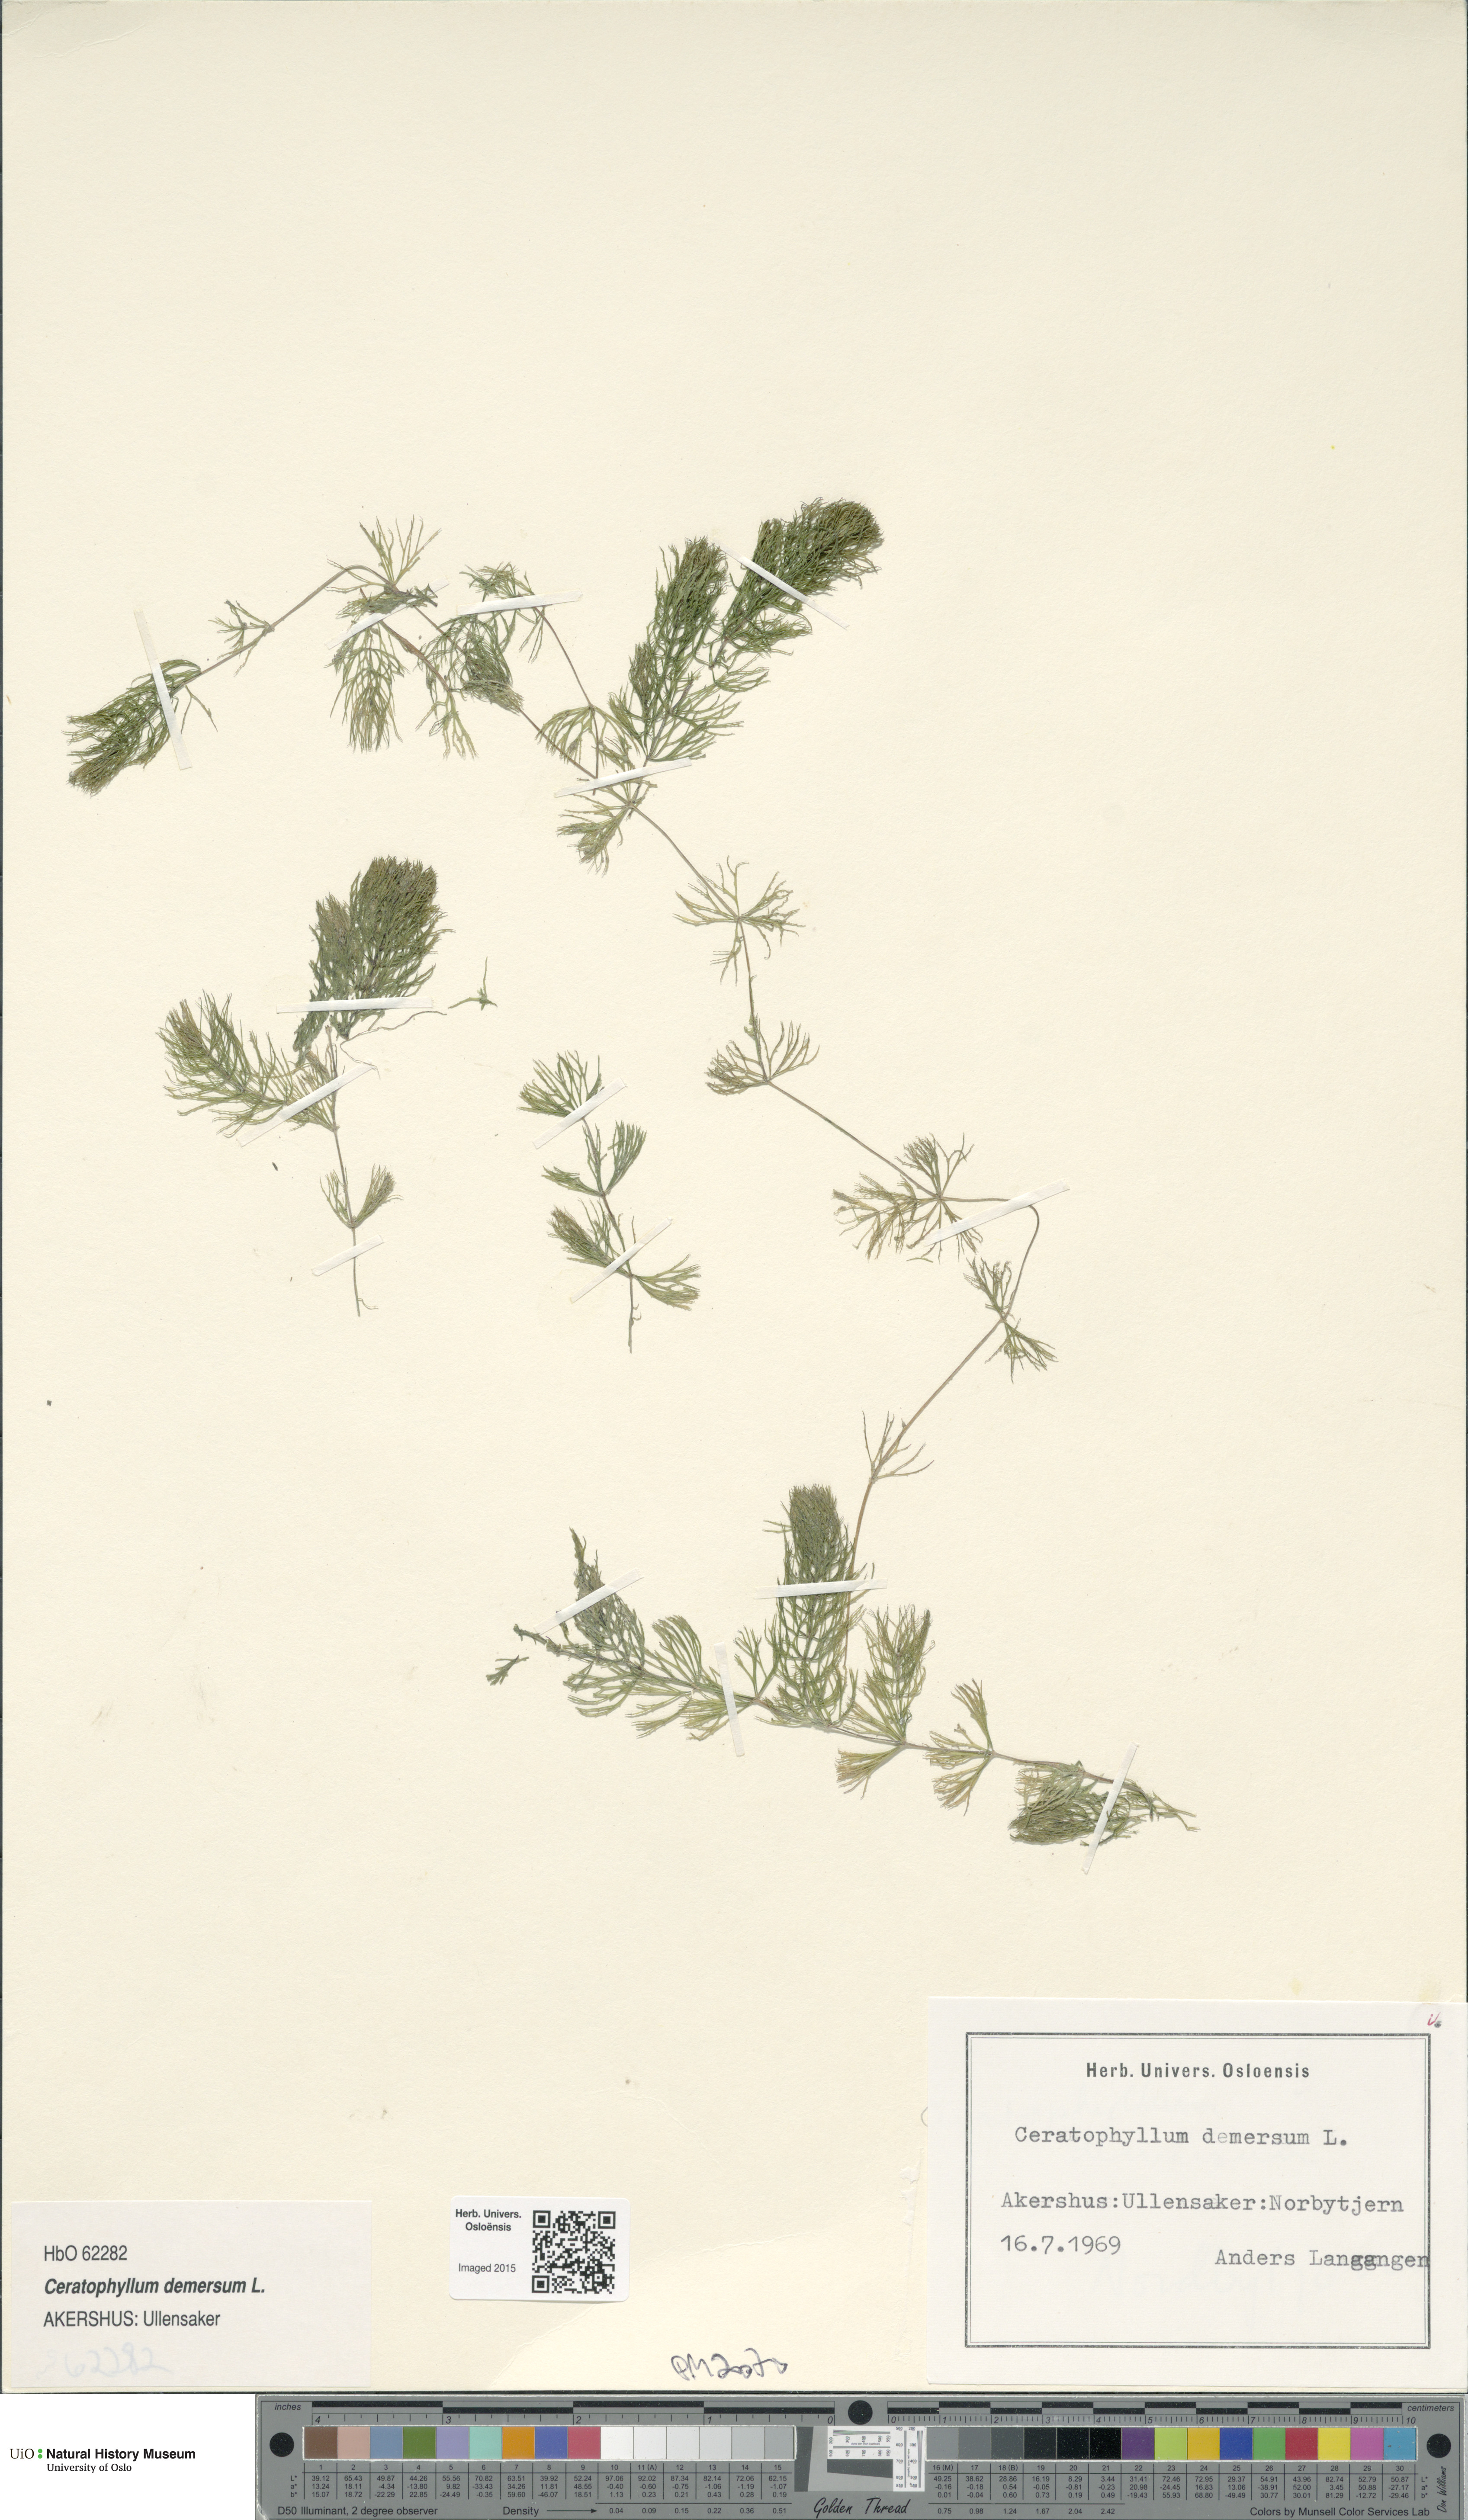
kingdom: Plantae
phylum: Tracheophyta
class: Magnoliopsida
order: Ceratophyllales
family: Ceratophyllaceae
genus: Ceratophyllum
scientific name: Ceratophyllum demersum
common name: Rigid hornwort
